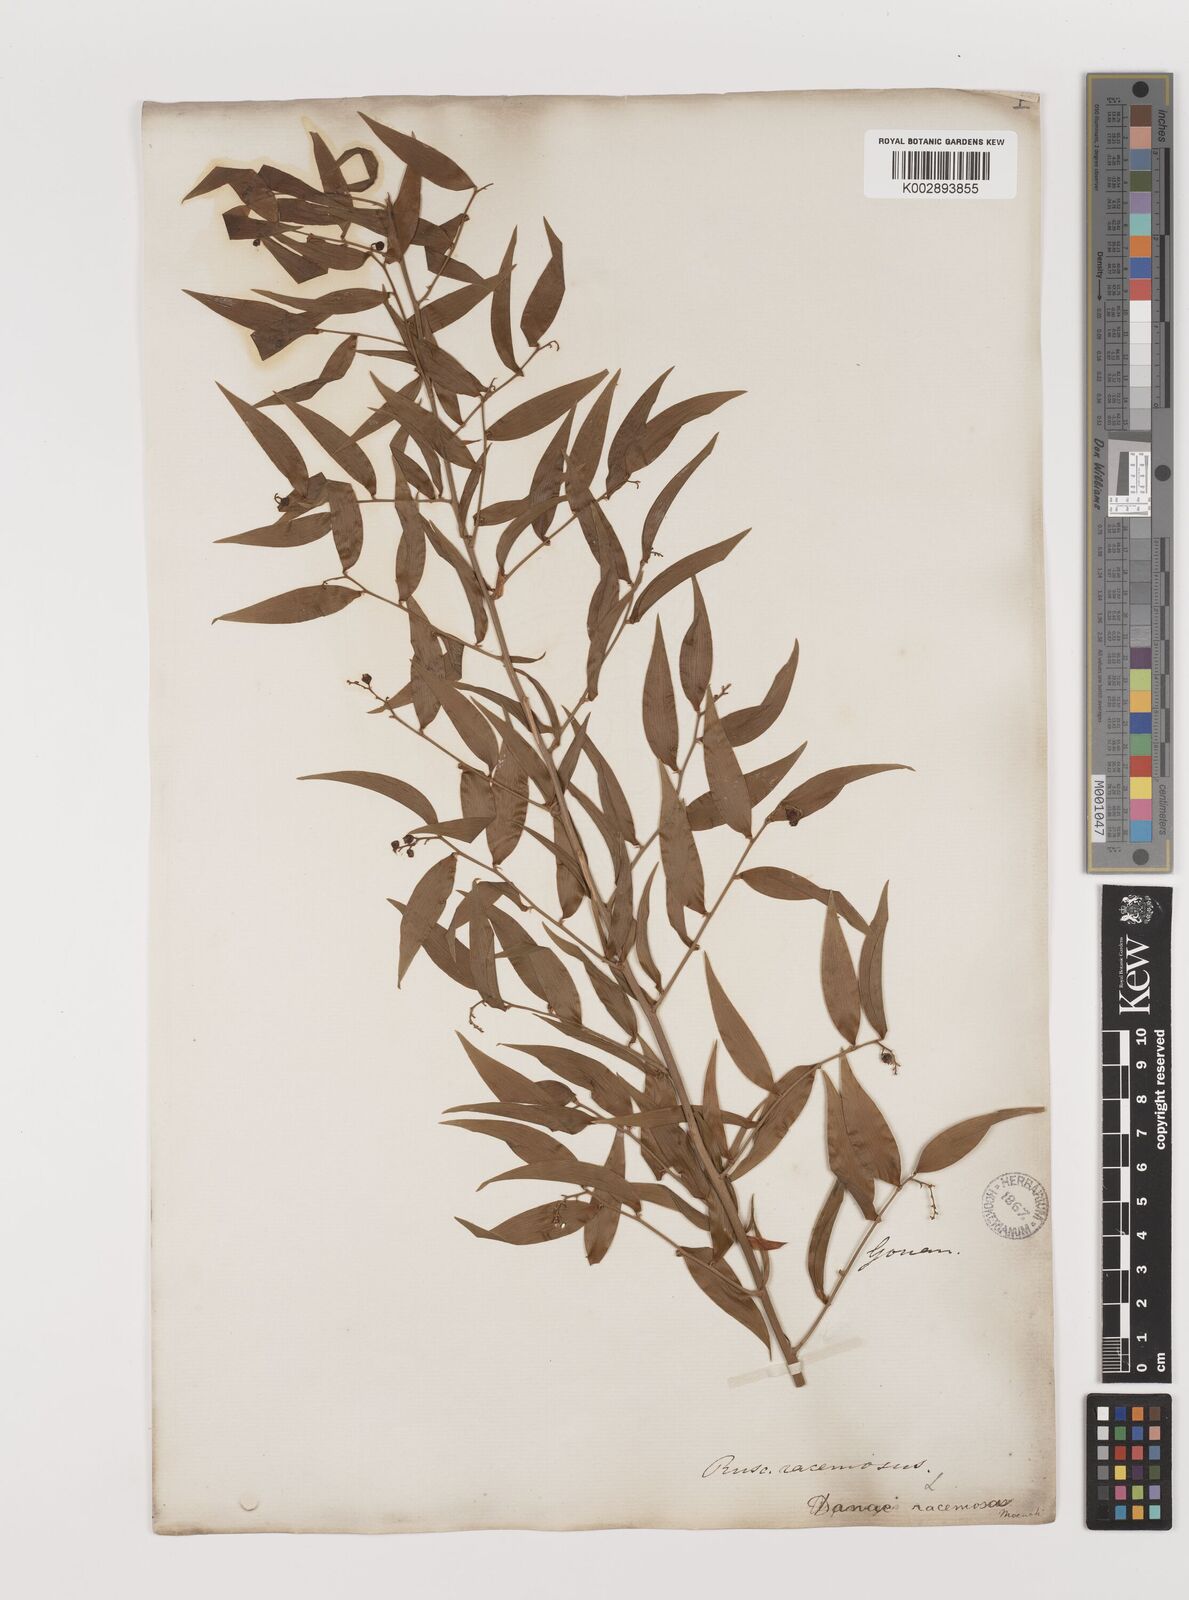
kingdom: Plantae
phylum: Tracheophyta
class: Liliopsida
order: Asparagales
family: Asparagaceae
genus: Danae
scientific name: Danae
